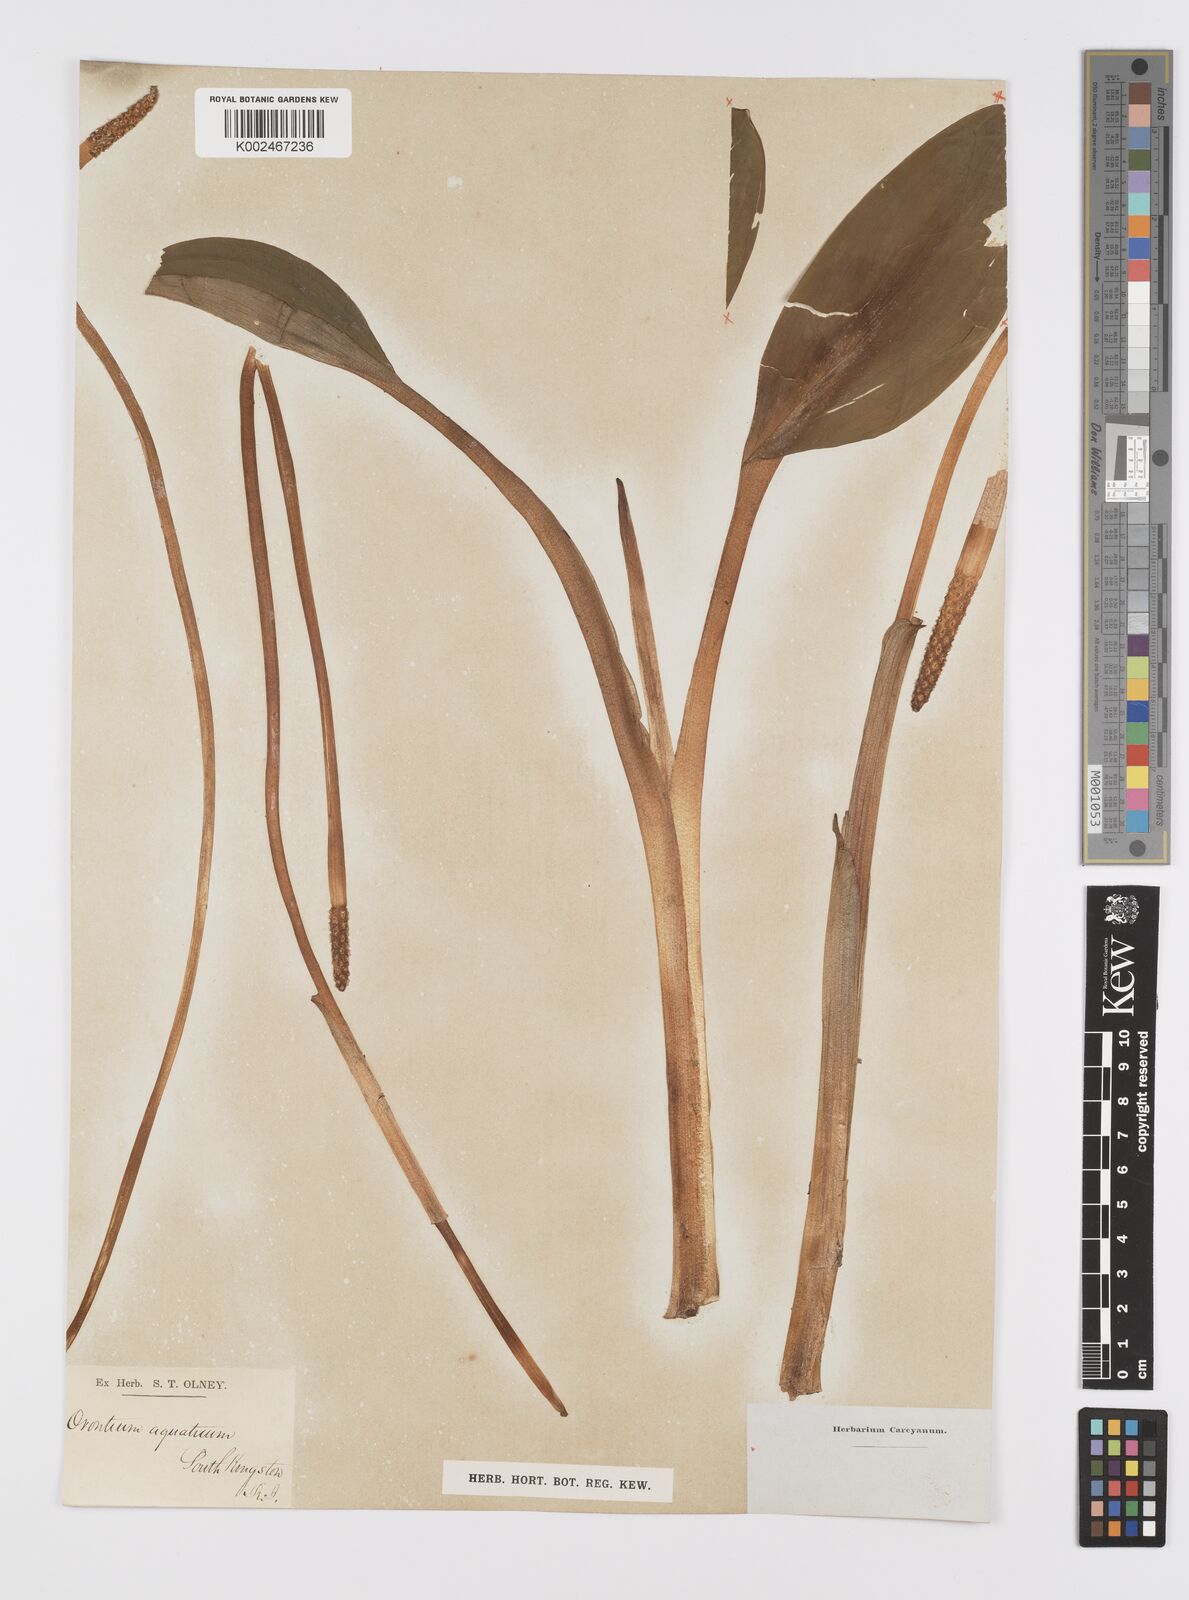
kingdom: Plantae
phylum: Tracheophyta
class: Liliopsida
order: Alismatales
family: Araceae
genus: Orontium
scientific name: Orontium aquaticum
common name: Golden-club
